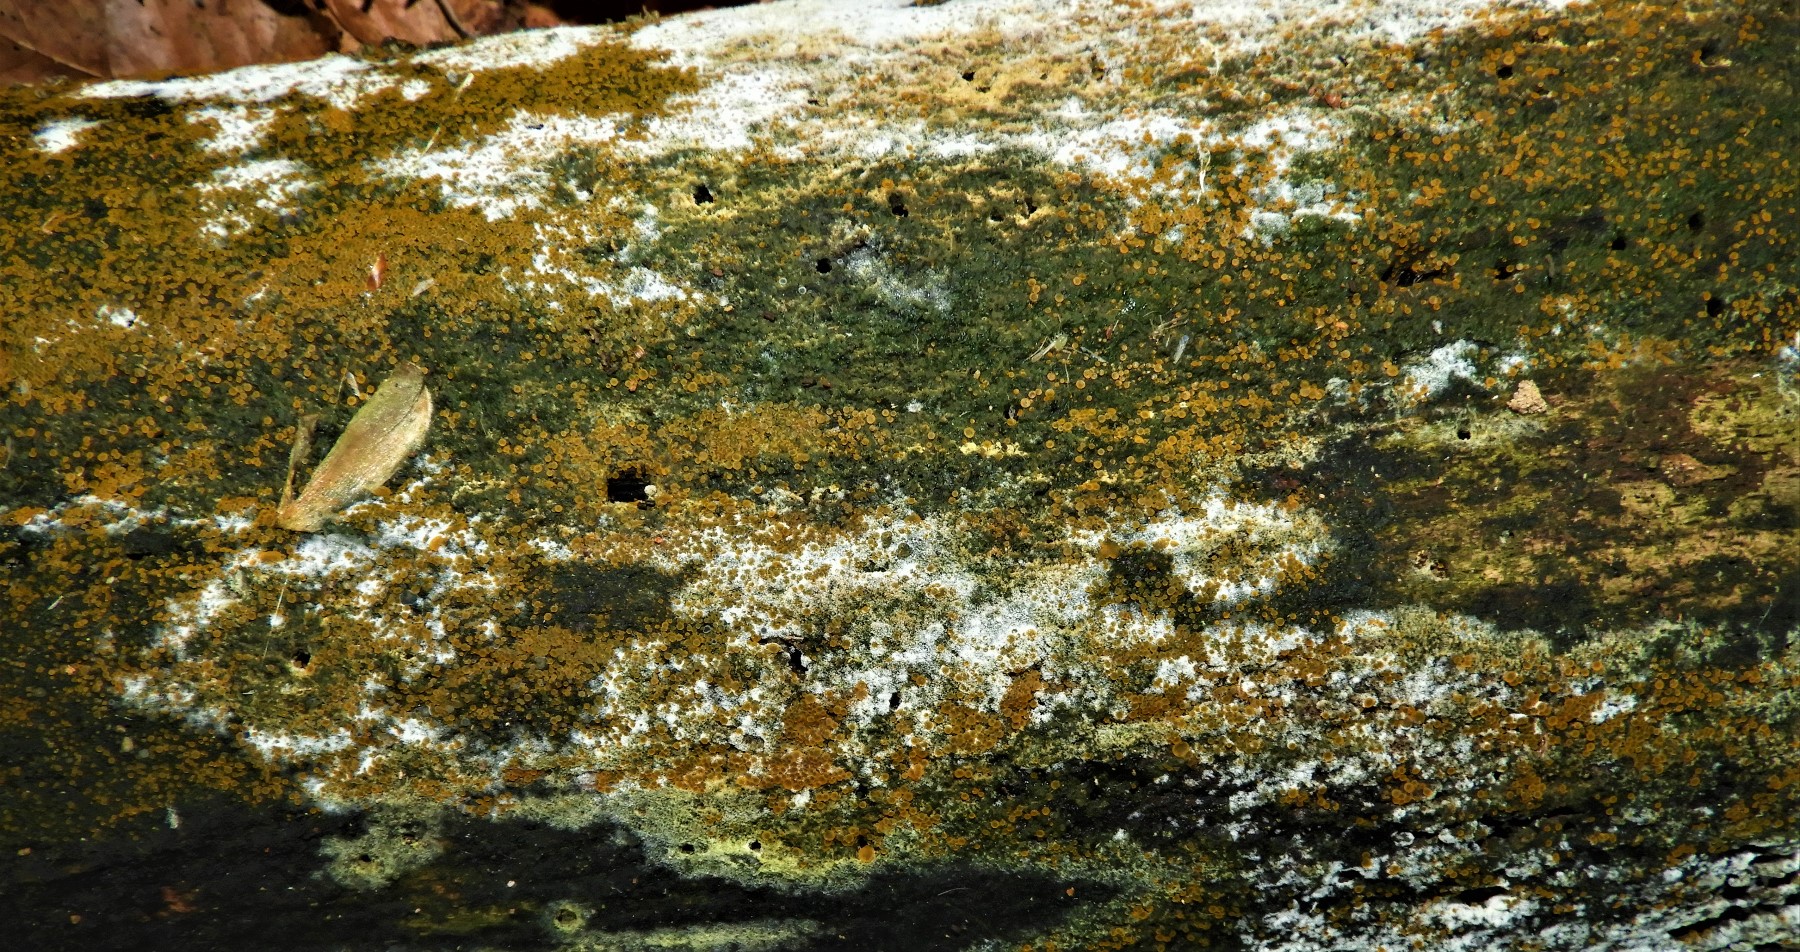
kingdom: Fungi
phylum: Ascomycota
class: Orbiliomycetes
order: Orbiliales
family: Orbiliaceae
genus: Orbilia
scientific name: Orbilia xanthostigma
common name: krumsporet voksskive
